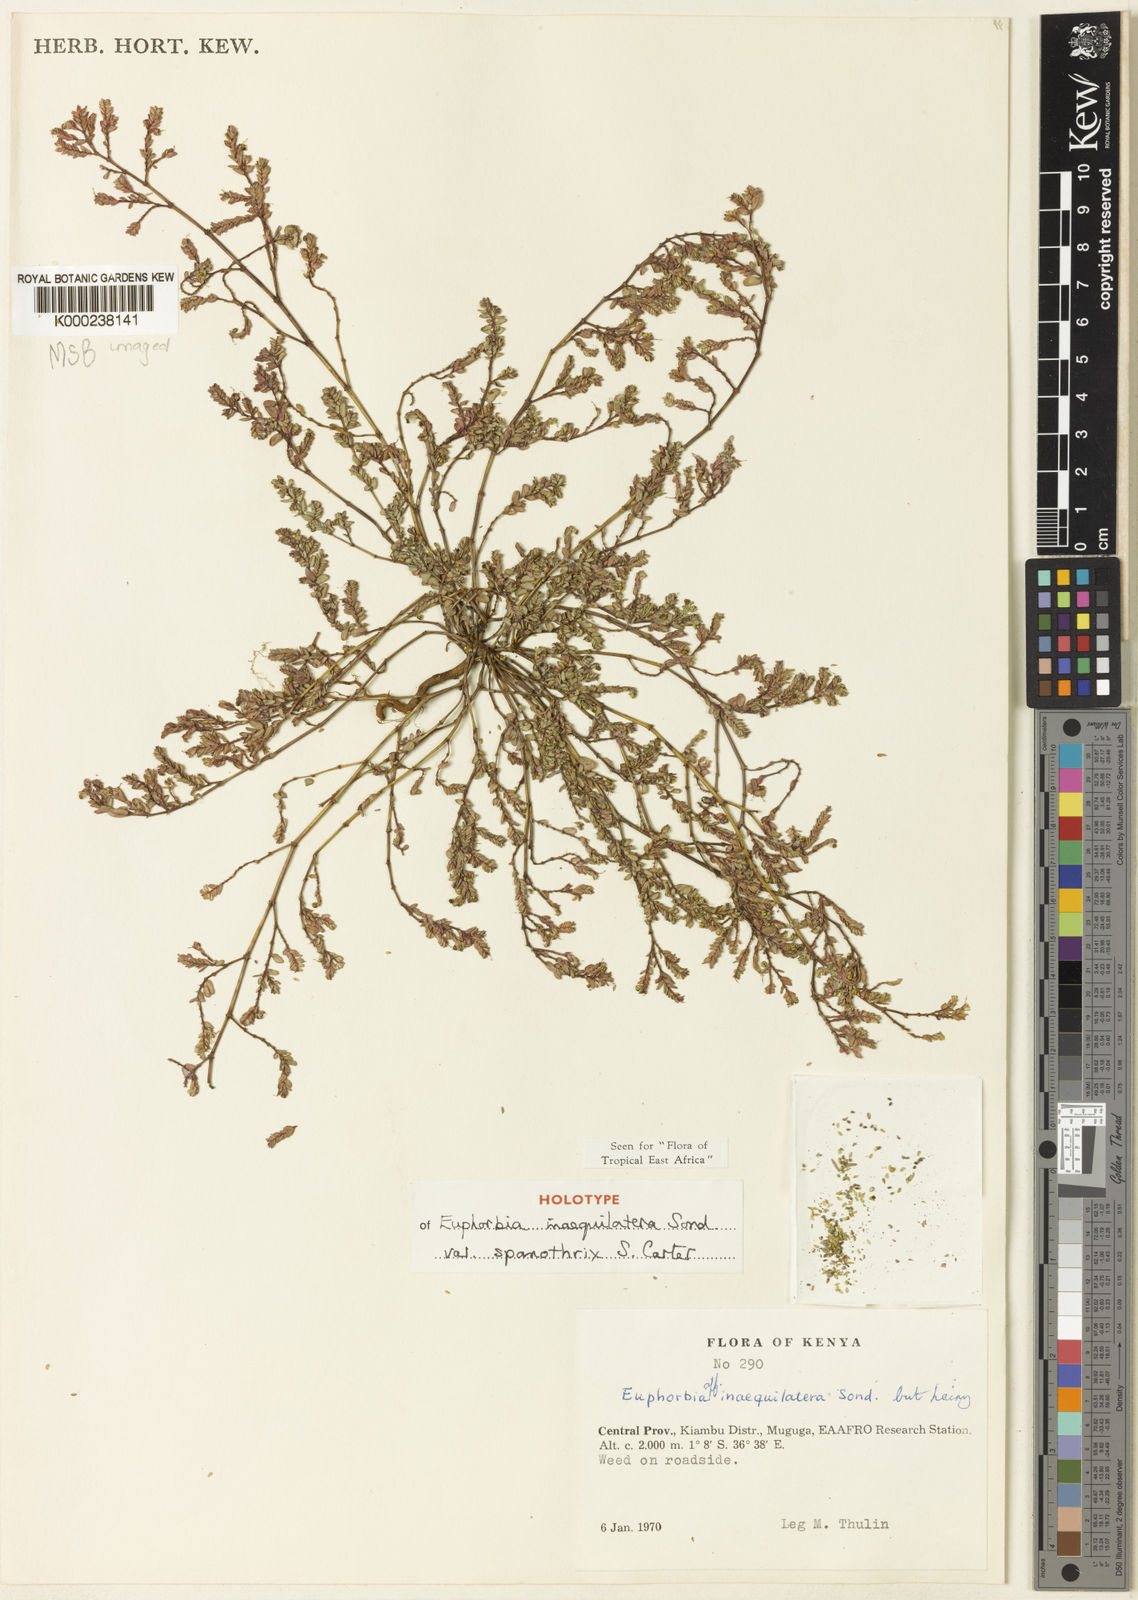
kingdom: Plantae
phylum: Tracheophyta
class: Magnoliopsida
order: Malpighiales
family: Euphorbiaceae
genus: Euphorbia
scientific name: Euphorbia inaequilatera
